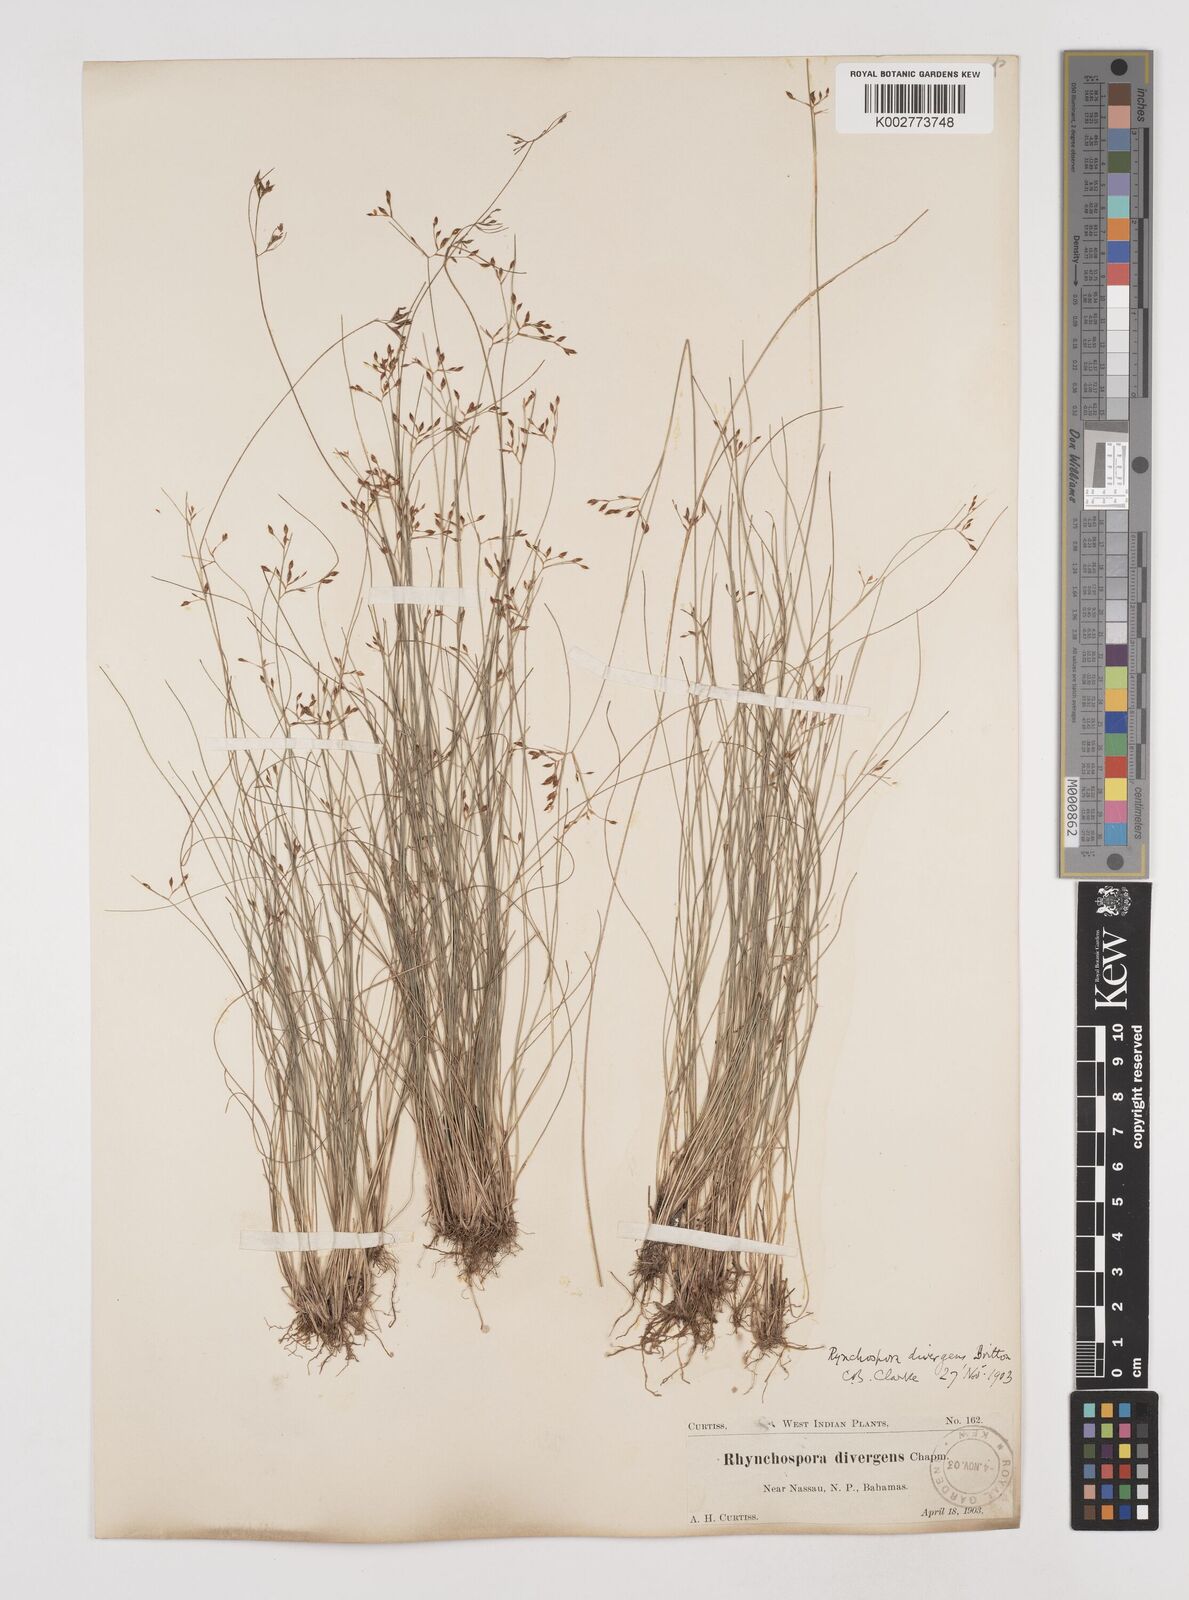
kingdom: Plantae
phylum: Tracheophyta
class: Liliopsida
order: Poales
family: Cyperaceae
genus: Rhynchospora
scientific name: Rhynchospora divergens
